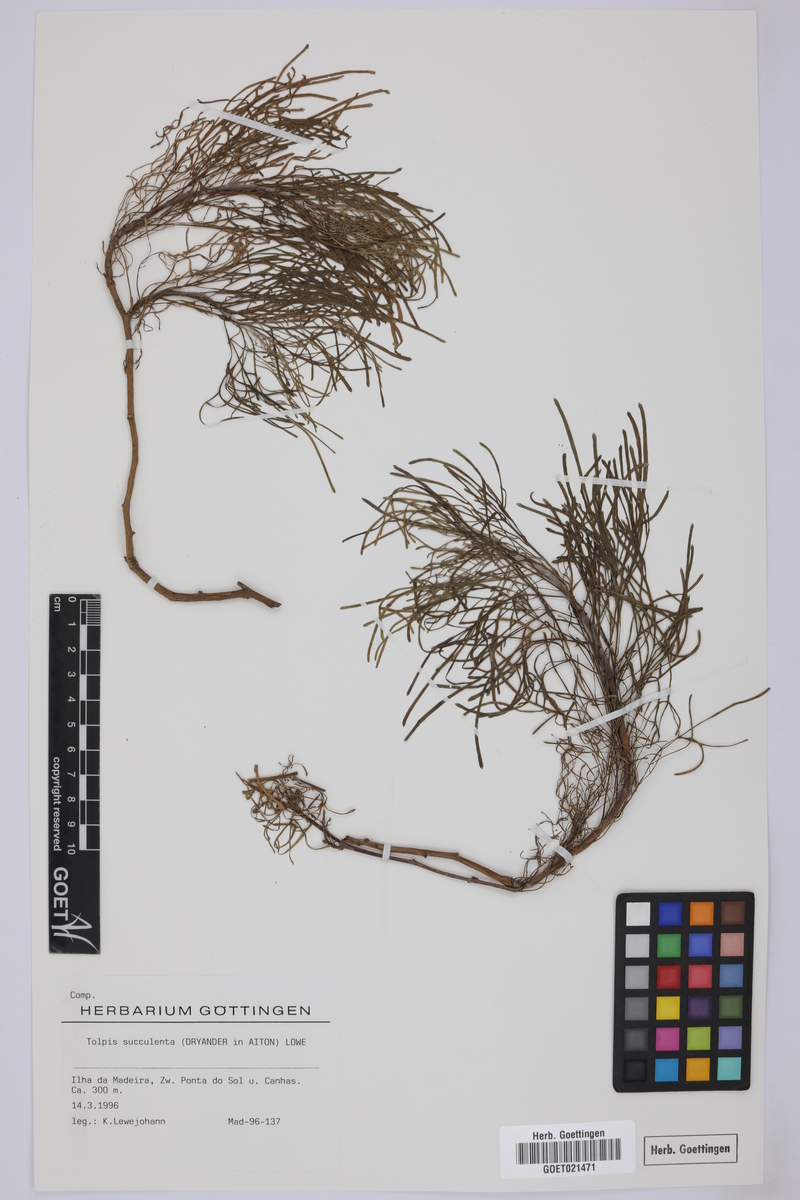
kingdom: Plantae
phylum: Tracheophyta
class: Magnoliopsida
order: Asterales
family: Asteraceae
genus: Tolpis
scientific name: Tolpis succulenta
